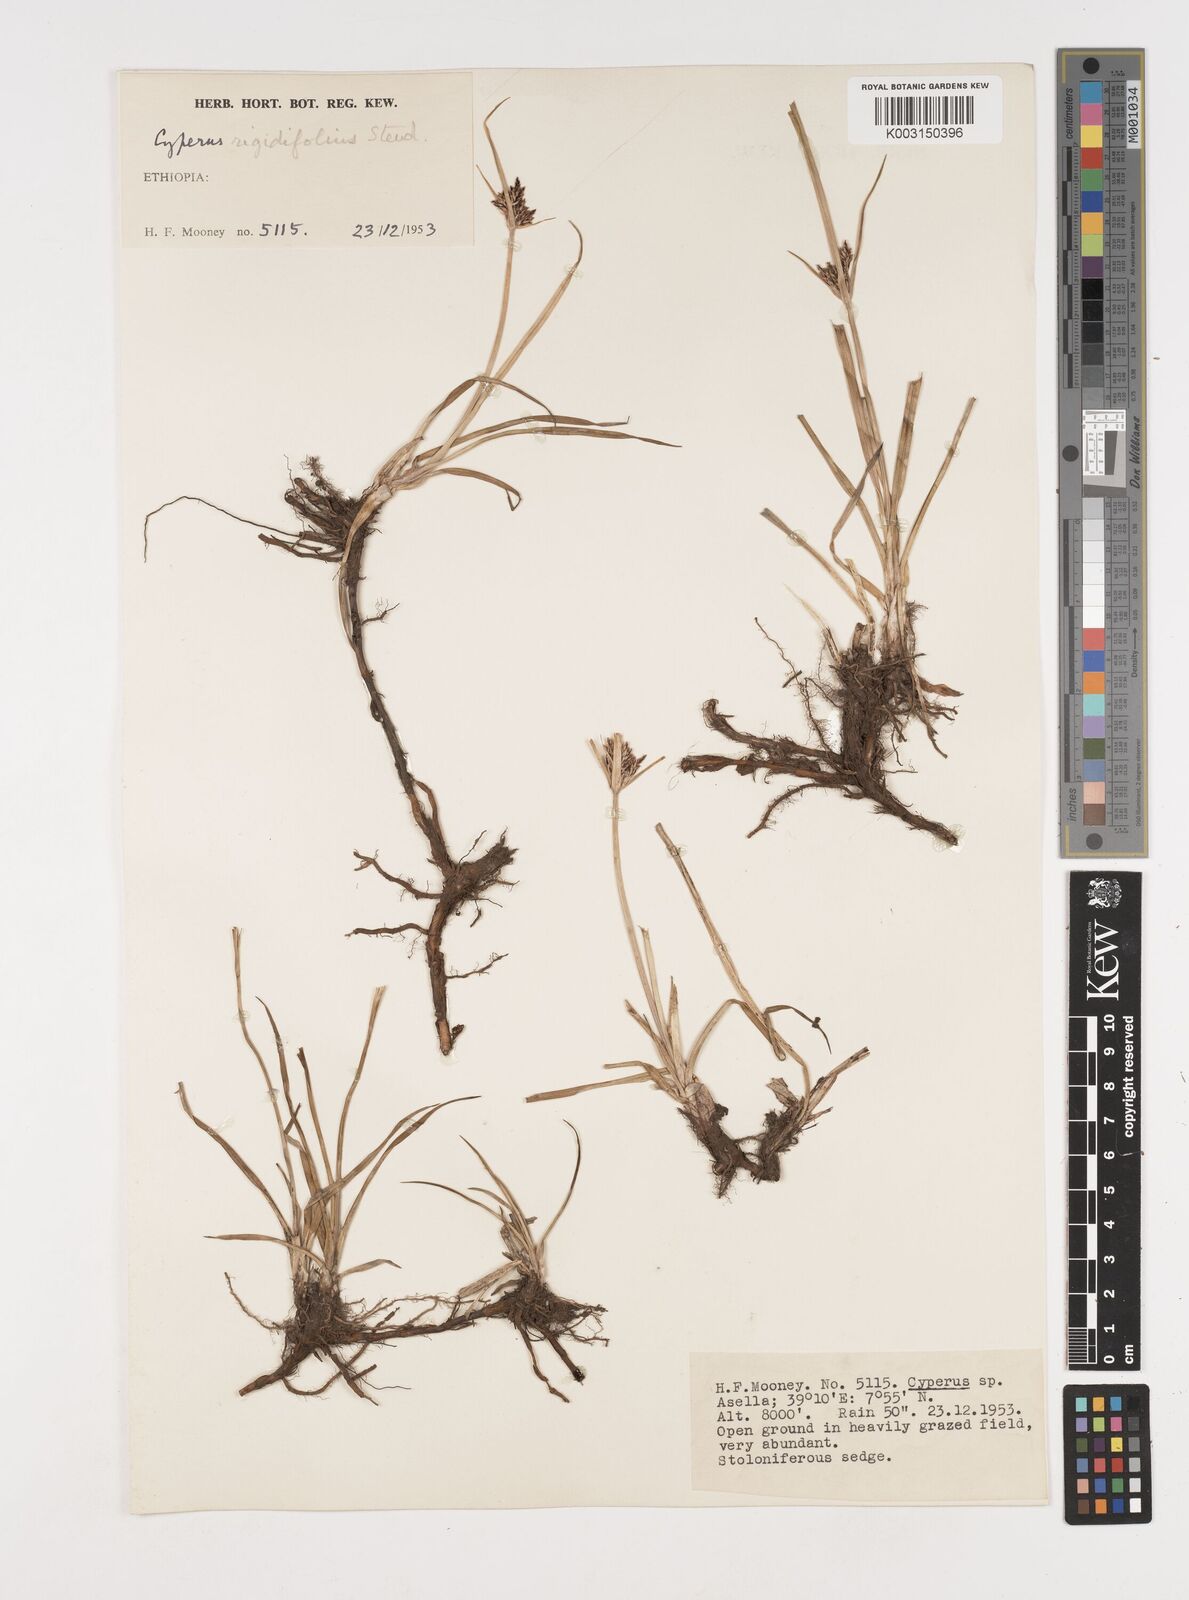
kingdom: Plantae
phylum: Tracheophyta
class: Liliopsida
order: Poales
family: Cyperaceae
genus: Cyperus
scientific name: Cyperus rigidifolius
